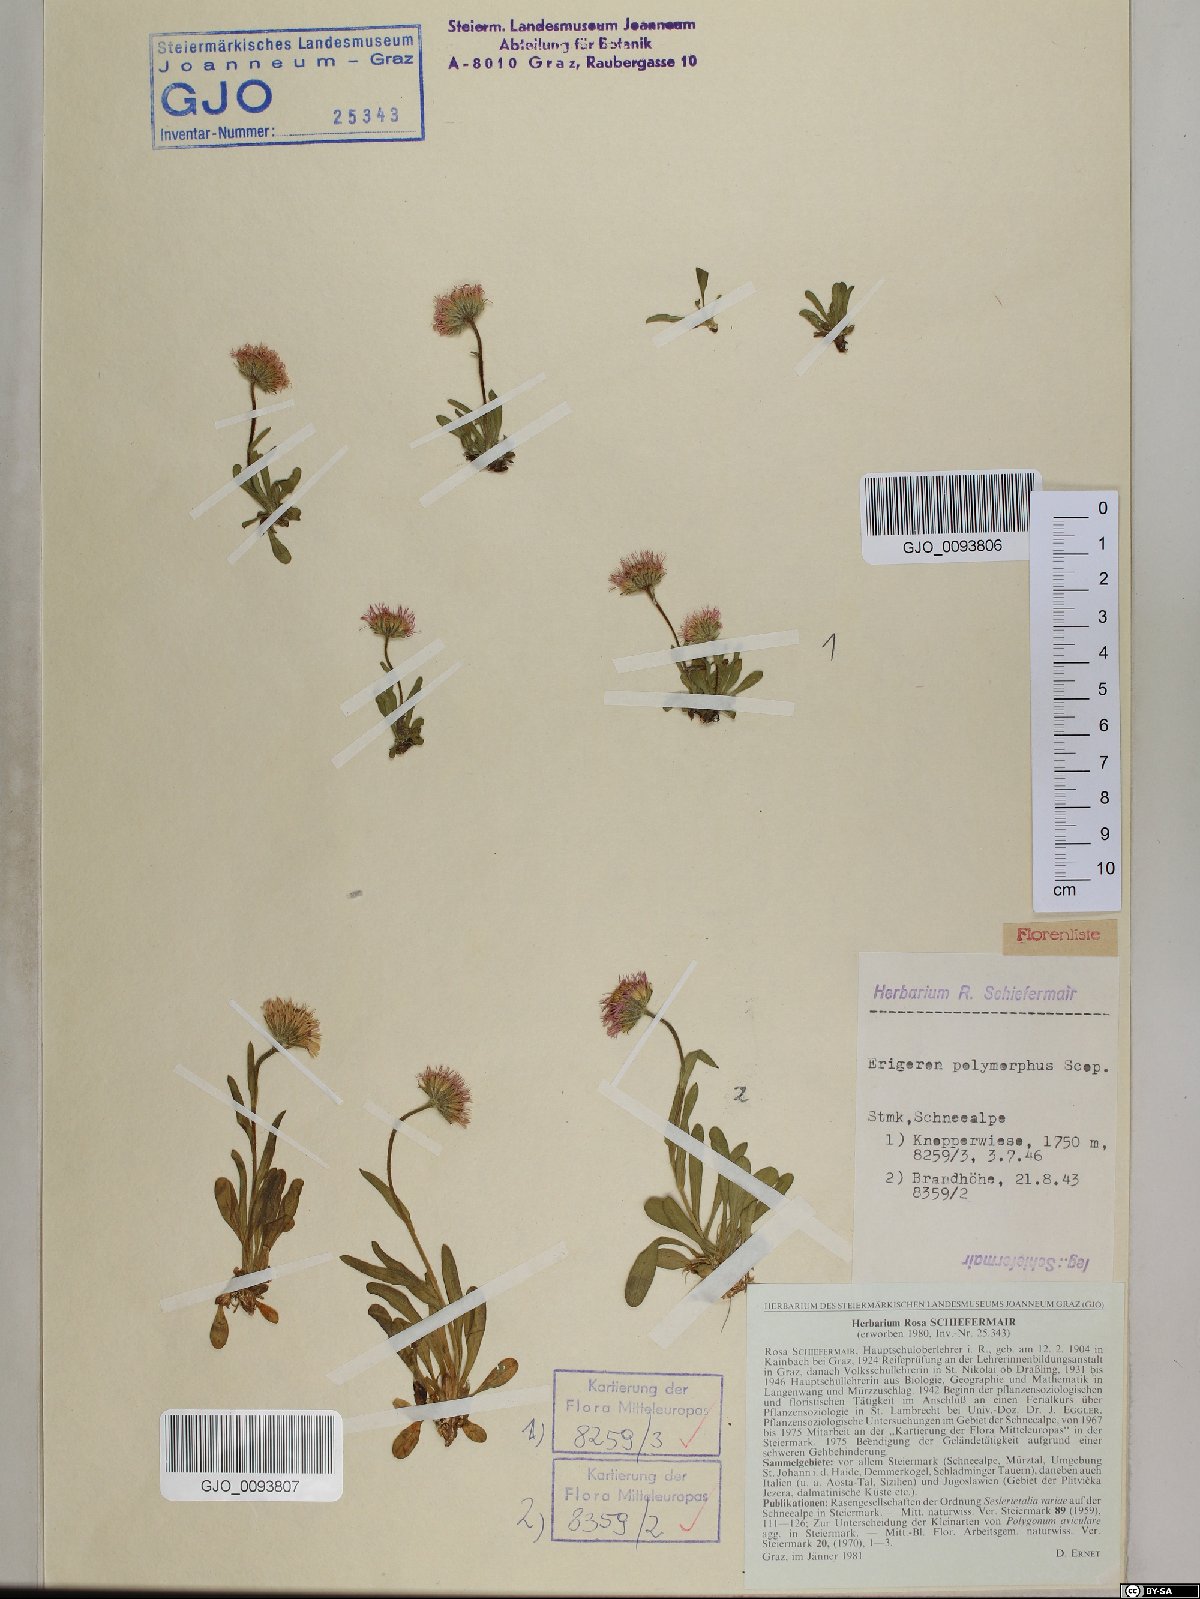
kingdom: Plantae
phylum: Tracheophyta
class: Magnoliopsida
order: Asterales
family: Asteraceae
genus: Erigeron
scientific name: Erigeron alpinus
